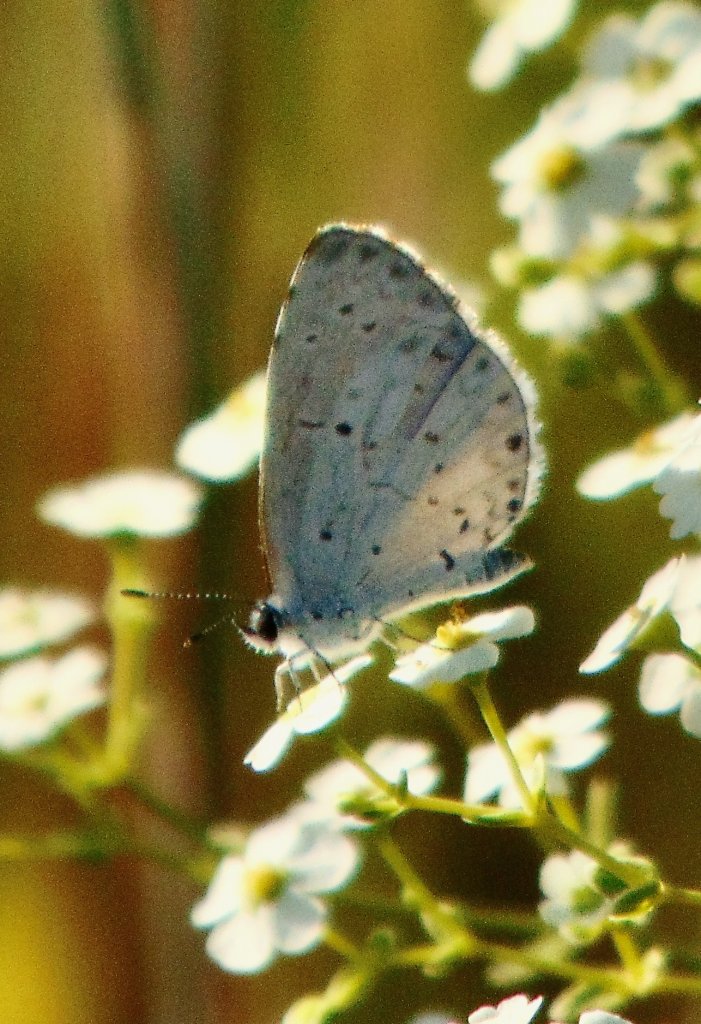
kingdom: Animalia
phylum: Arthropoda
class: Insecta
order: Lepidoptera
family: Lycaenidae
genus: Cyaniris
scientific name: Cyaniris neglecta
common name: Summer Azure
